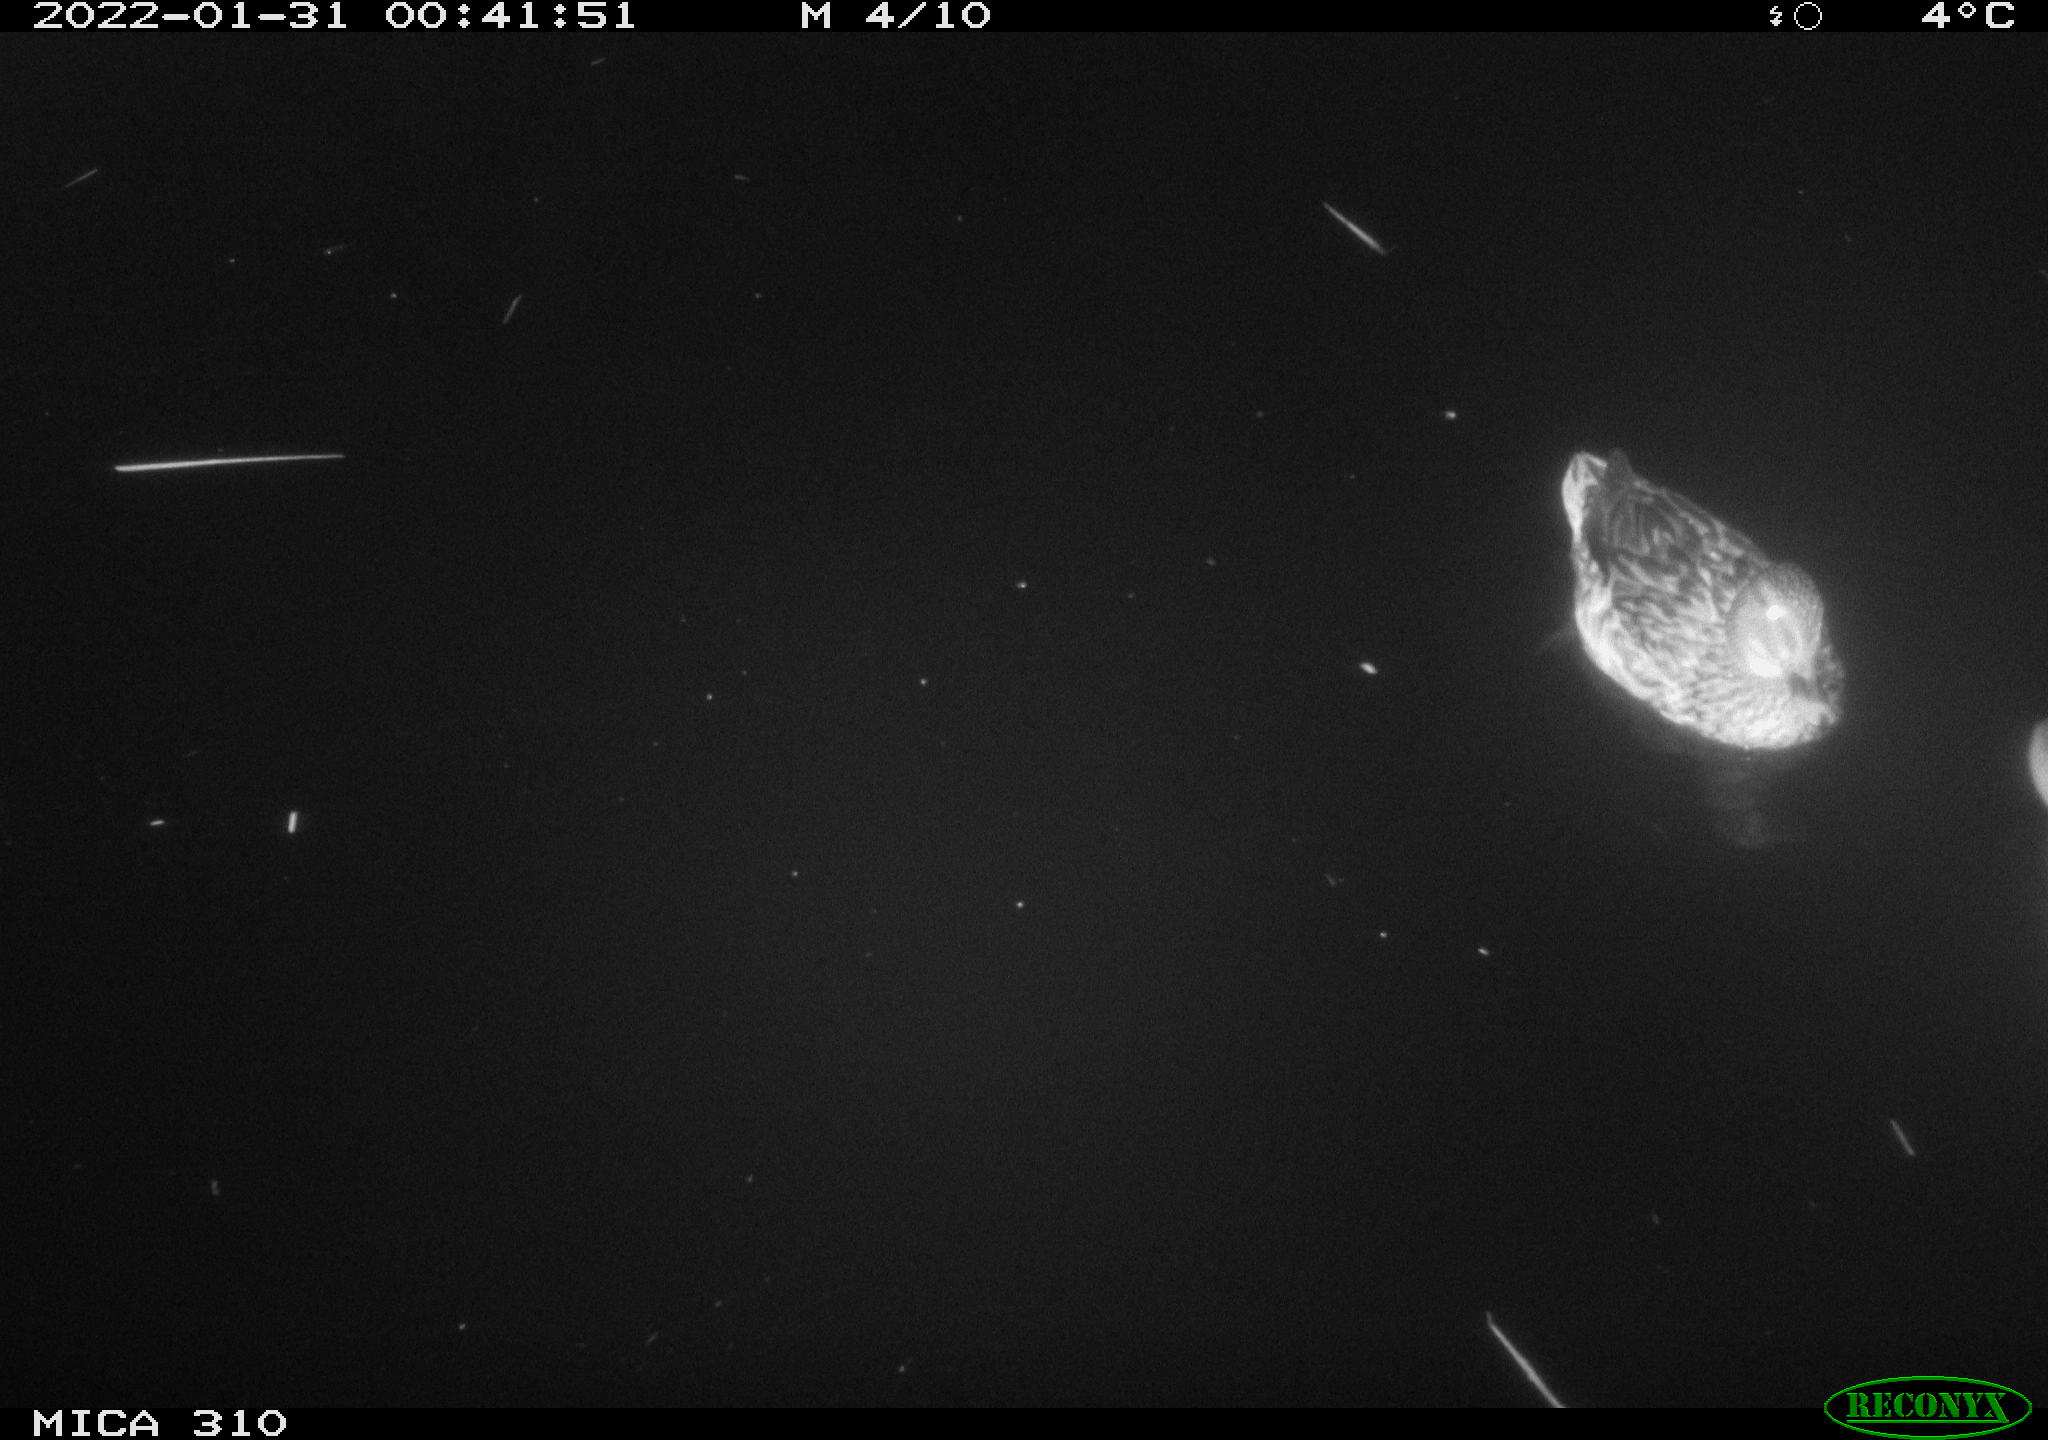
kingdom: Animalia
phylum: Chordata
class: Aves
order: Anseriformes
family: Anatidae
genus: Anas
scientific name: Anas
